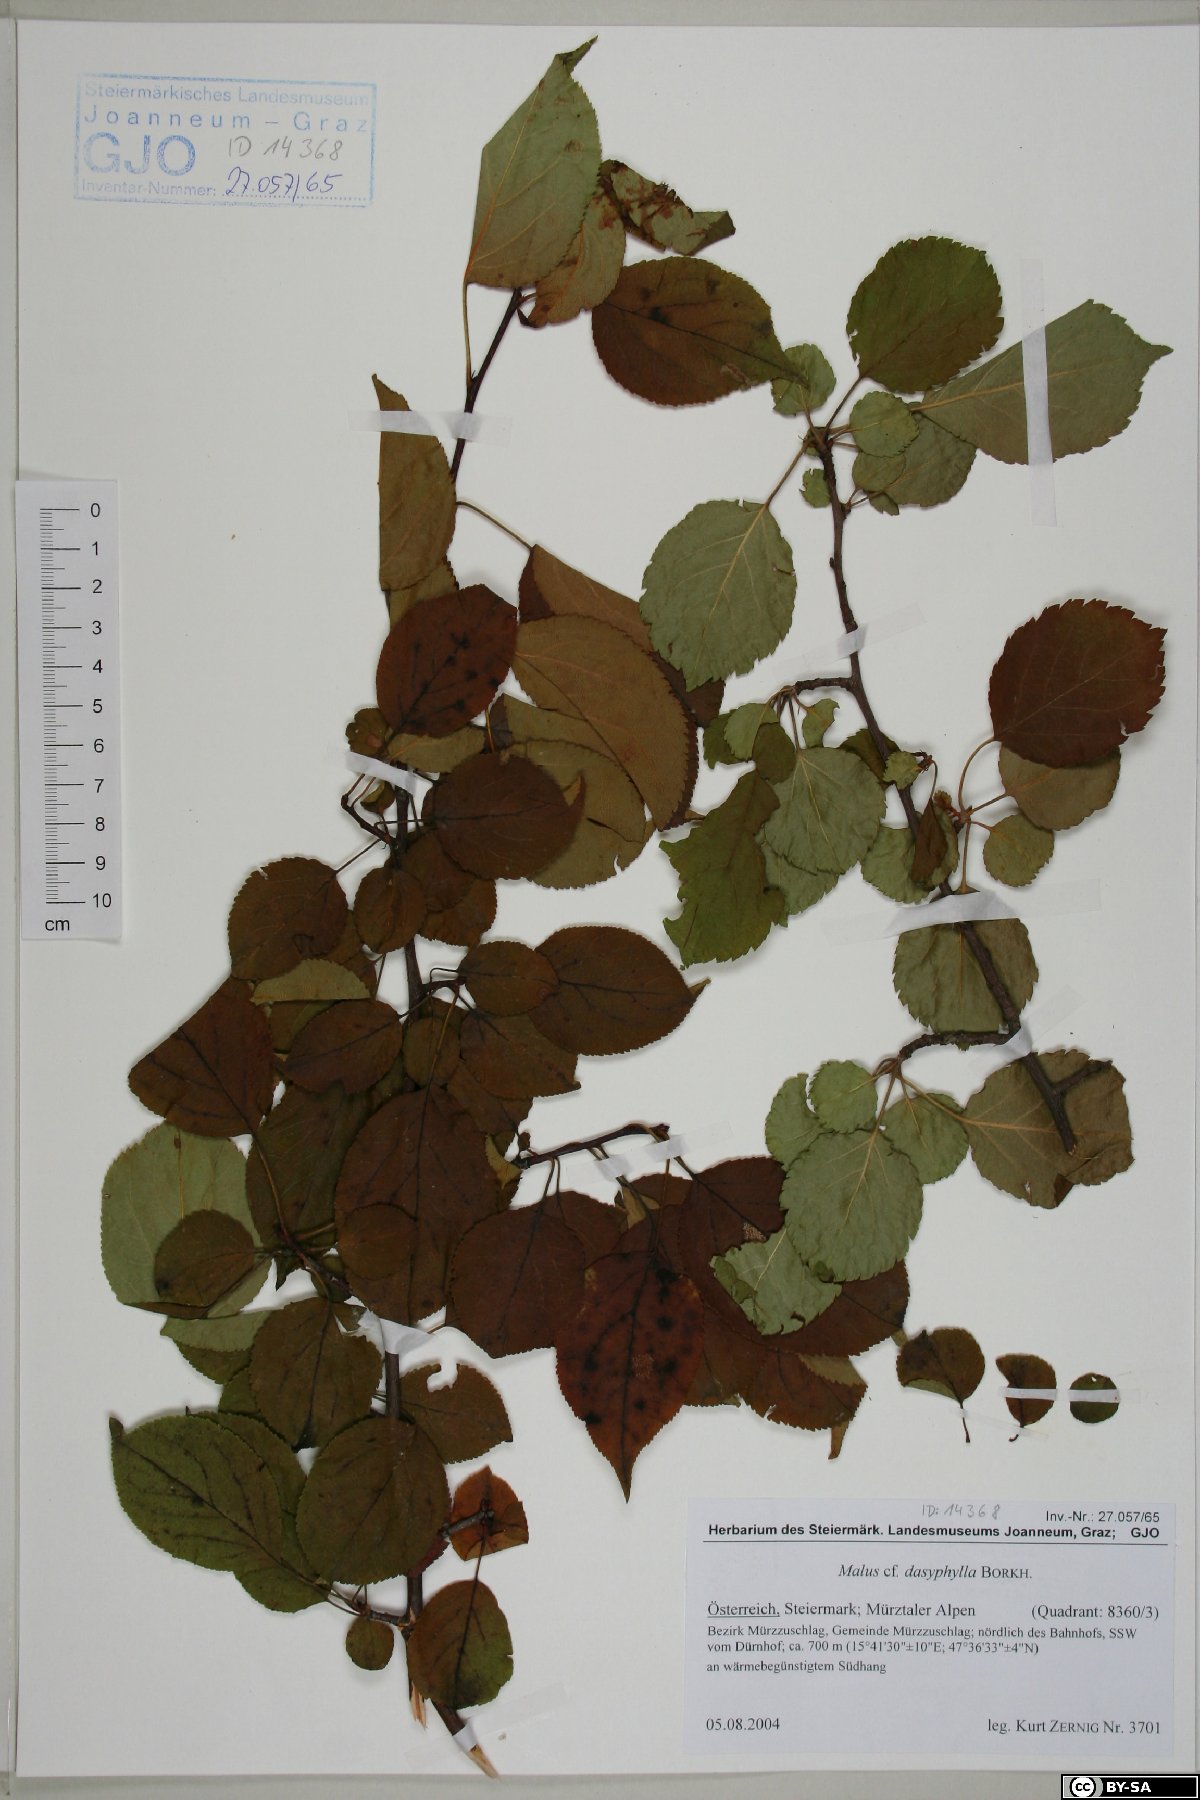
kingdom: Plantae
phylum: Tracheophyta
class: Magnoliopsida
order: Rosales
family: Rosaceae
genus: Malus
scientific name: Malus dasyphylla
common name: Paradise apple
